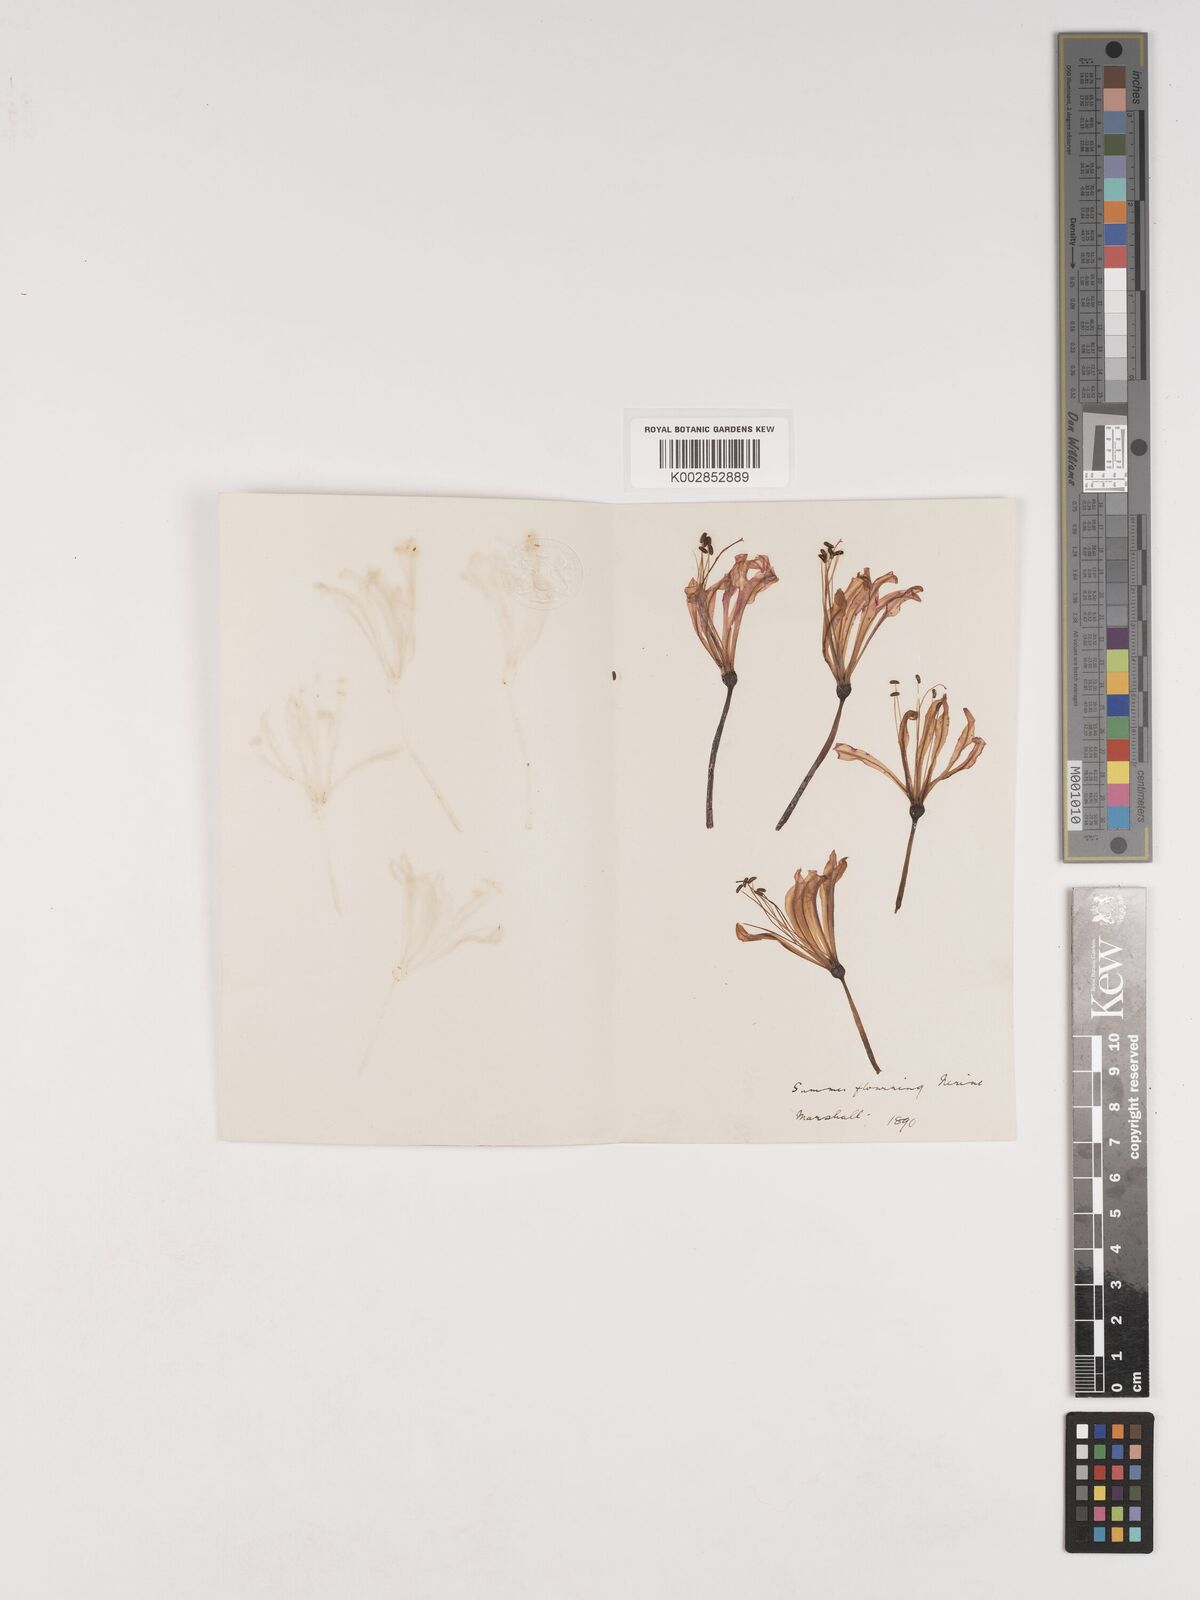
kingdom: Plantae
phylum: Tracheophyta
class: Liliopsida
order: Asparagales
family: Amaryllidaceae
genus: Nerine
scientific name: Nerine humilis
